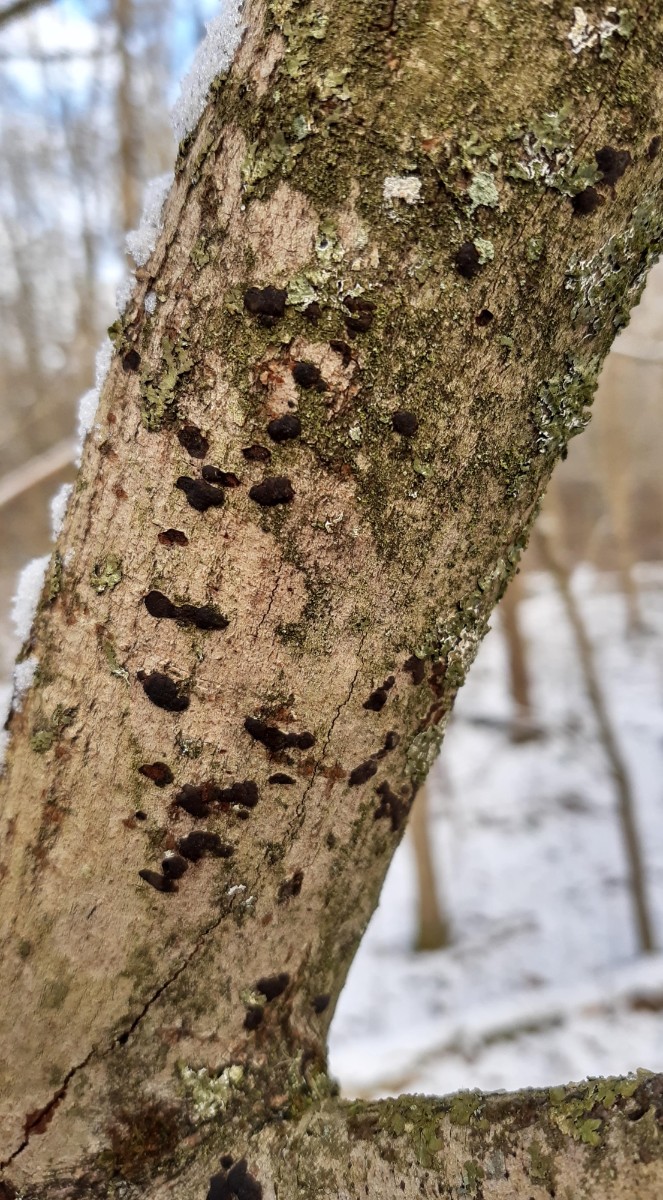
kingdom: Fungi
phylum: Ascomycota
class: Sordariomycetes
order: Xylariales
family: Diatrypaceae
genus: Diatrype
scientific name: Diatrype bullata
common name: pile-kulskorpe
